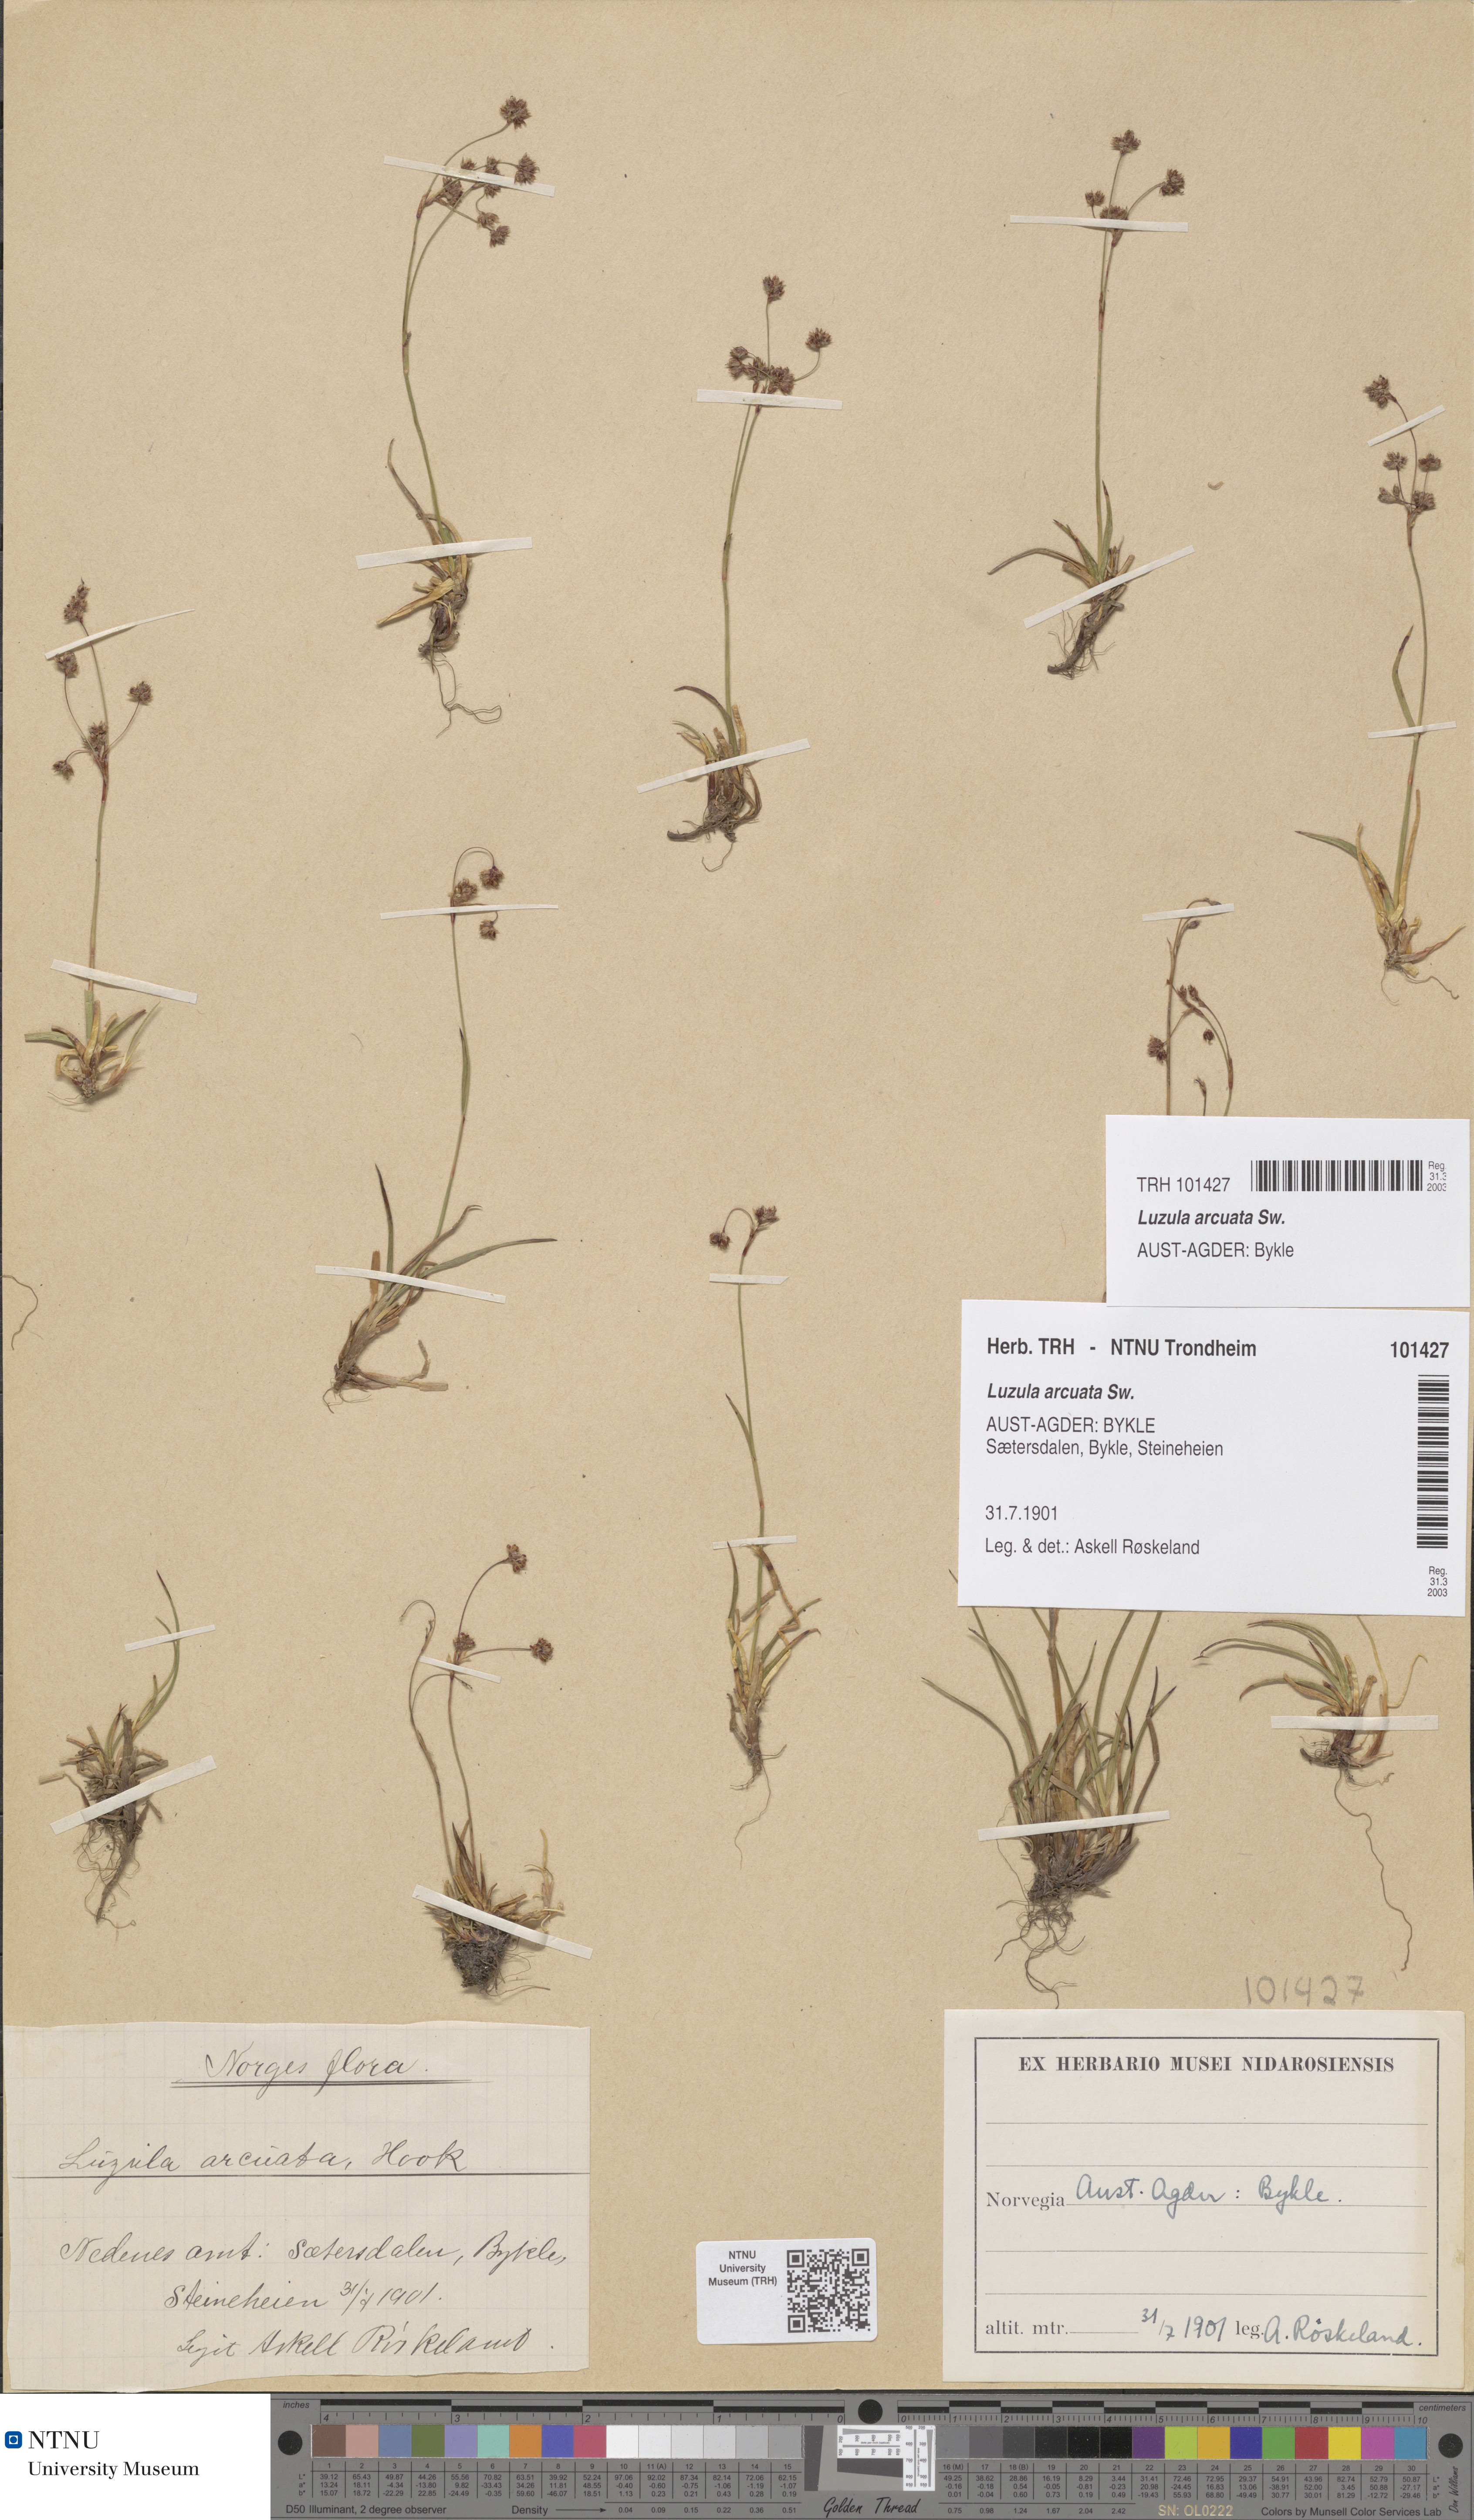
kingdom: Plantae
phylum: Tracheophyta
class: Liliopsida
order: Poales
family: Juncaceae
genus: Luzula
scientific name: Luzula arcuata
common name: Curved wood-rush
